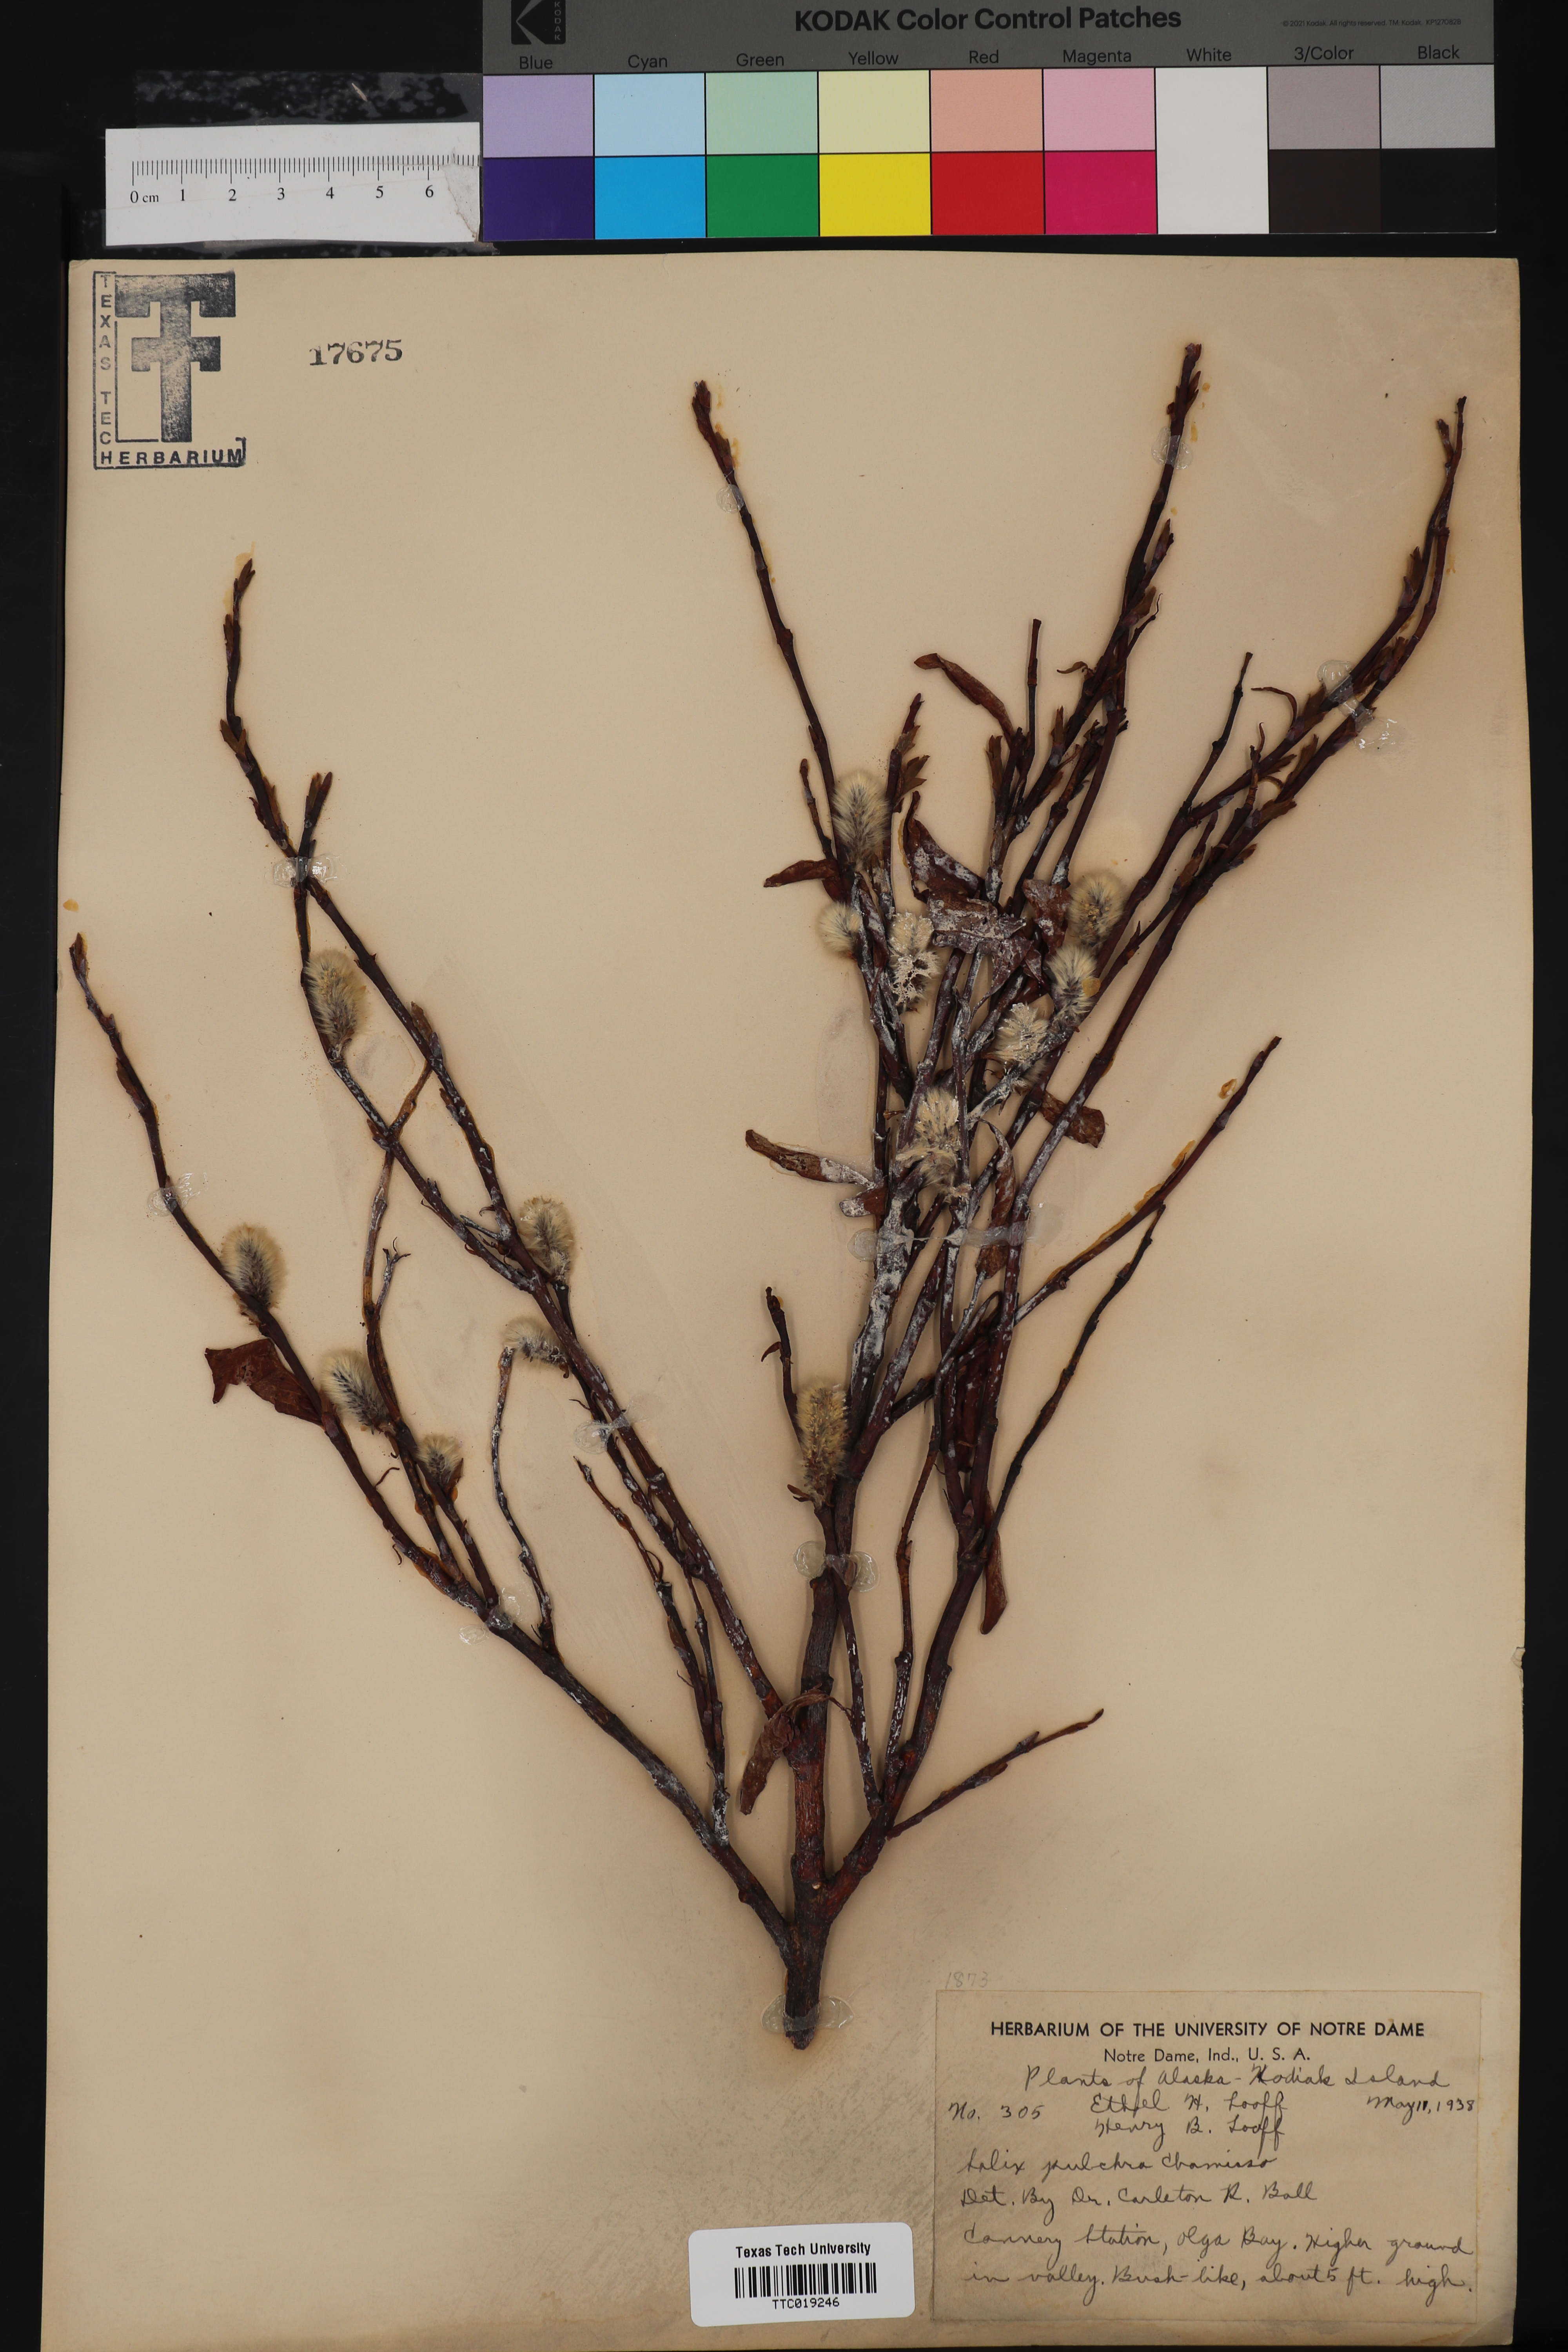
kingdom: Plantae
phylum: Tracheophyta
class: Magnoliopsida
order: Malpighiales
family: Salicaceae
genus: Salix
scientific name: Salix pulchra
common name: Diamond-leaved willow
